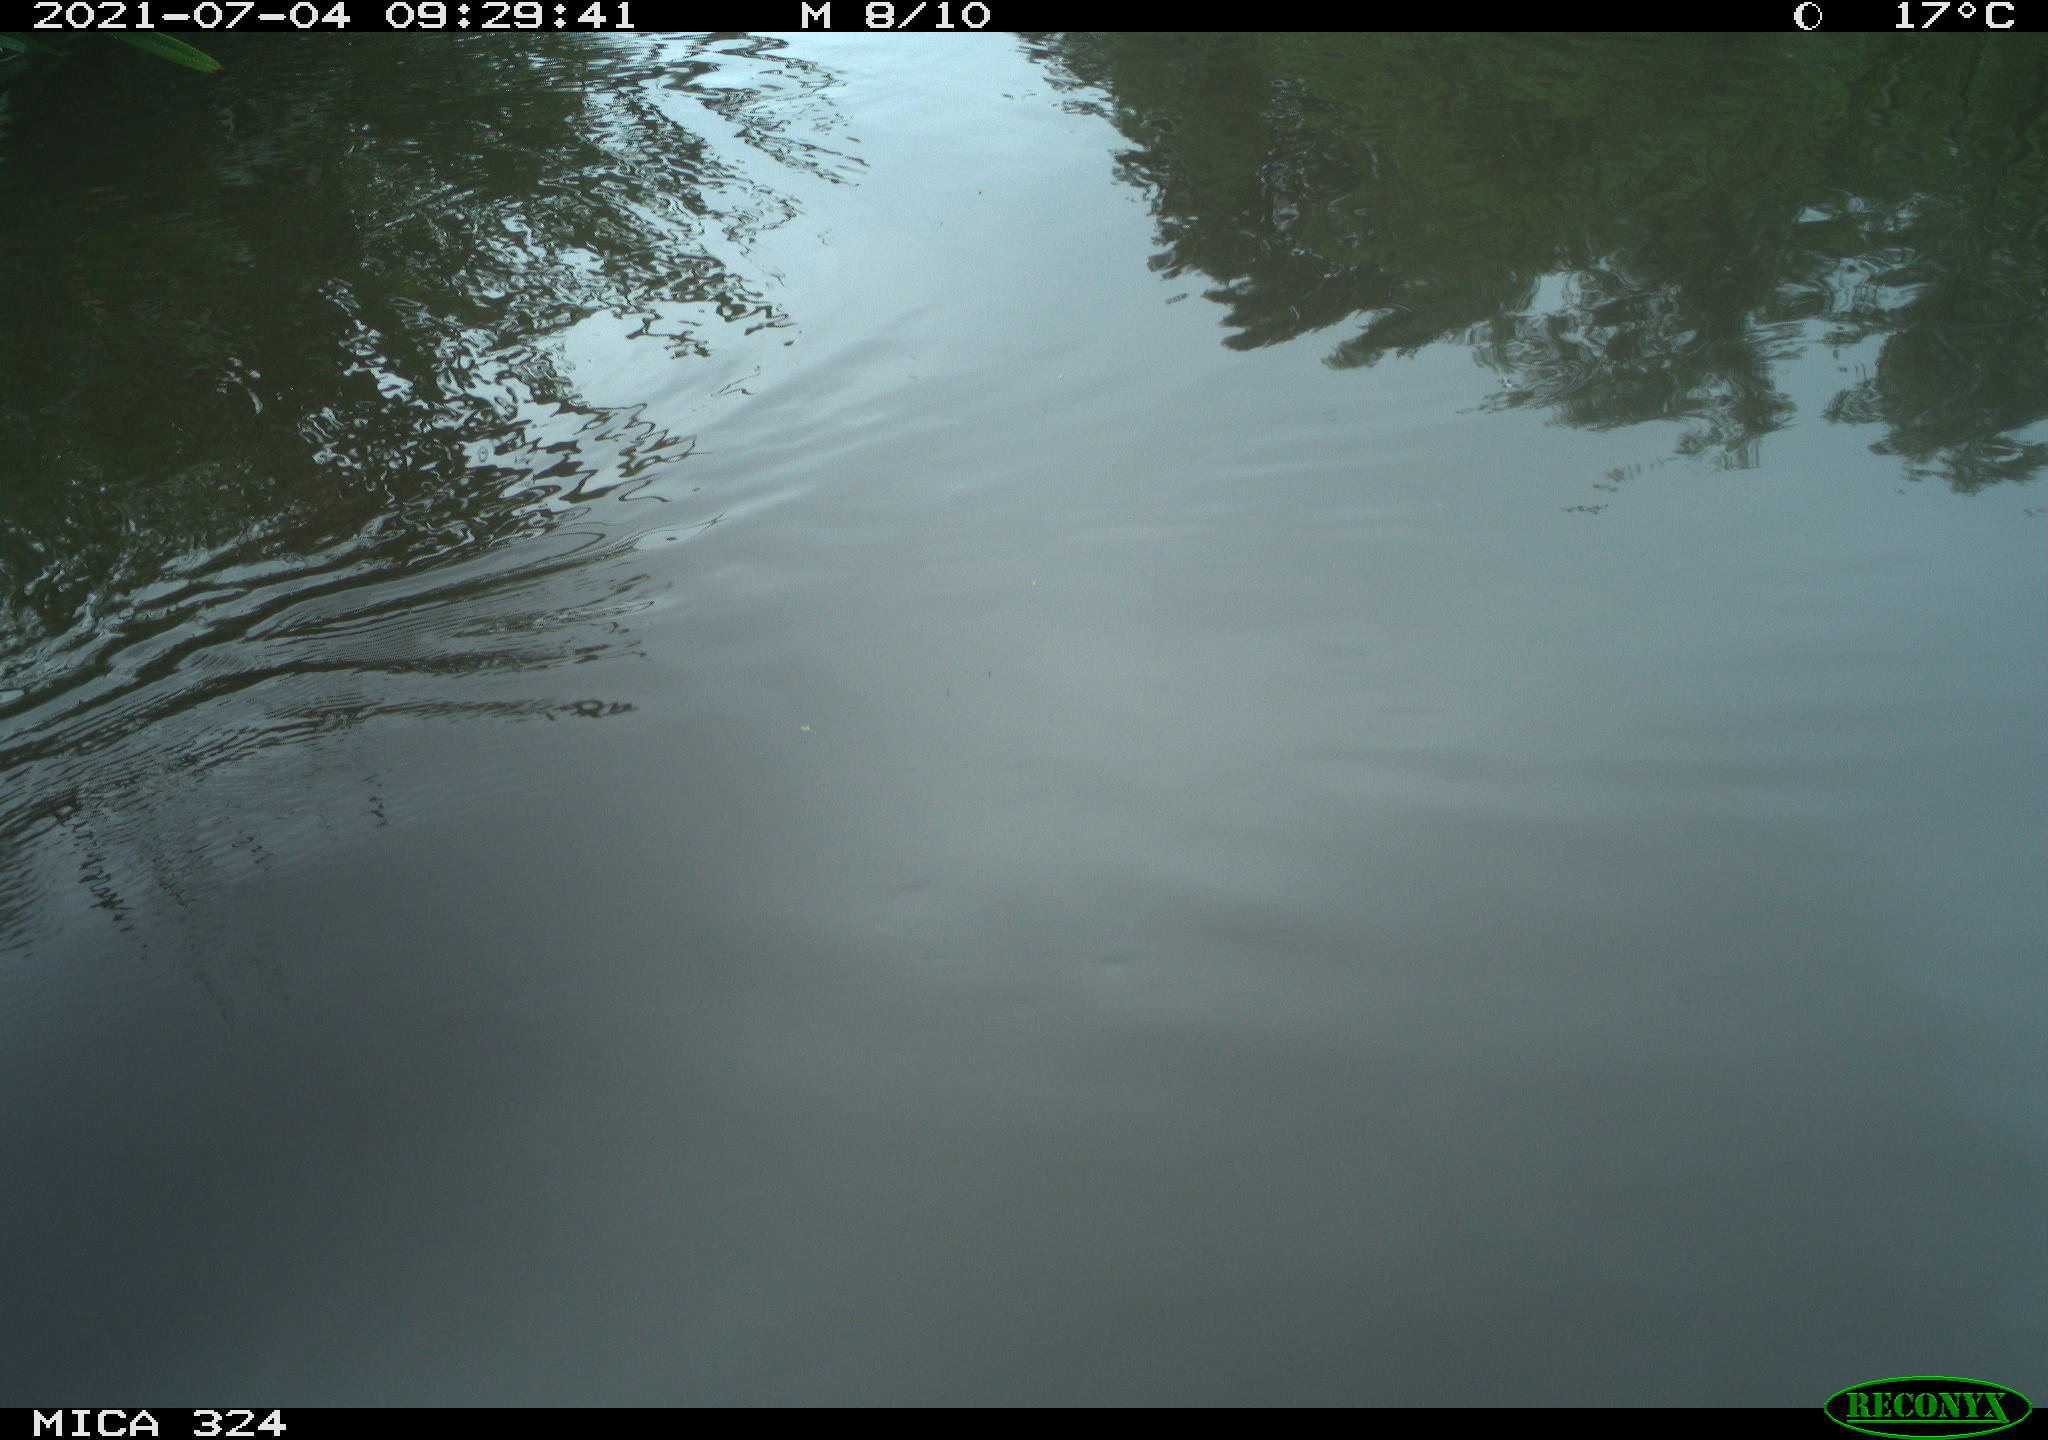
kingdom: Animalia
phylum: Chordata
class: Mammalia
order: Rodentia
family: Cricetidae
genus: Ondatra
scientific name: Ondatra zibethicus
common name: Muskrat
